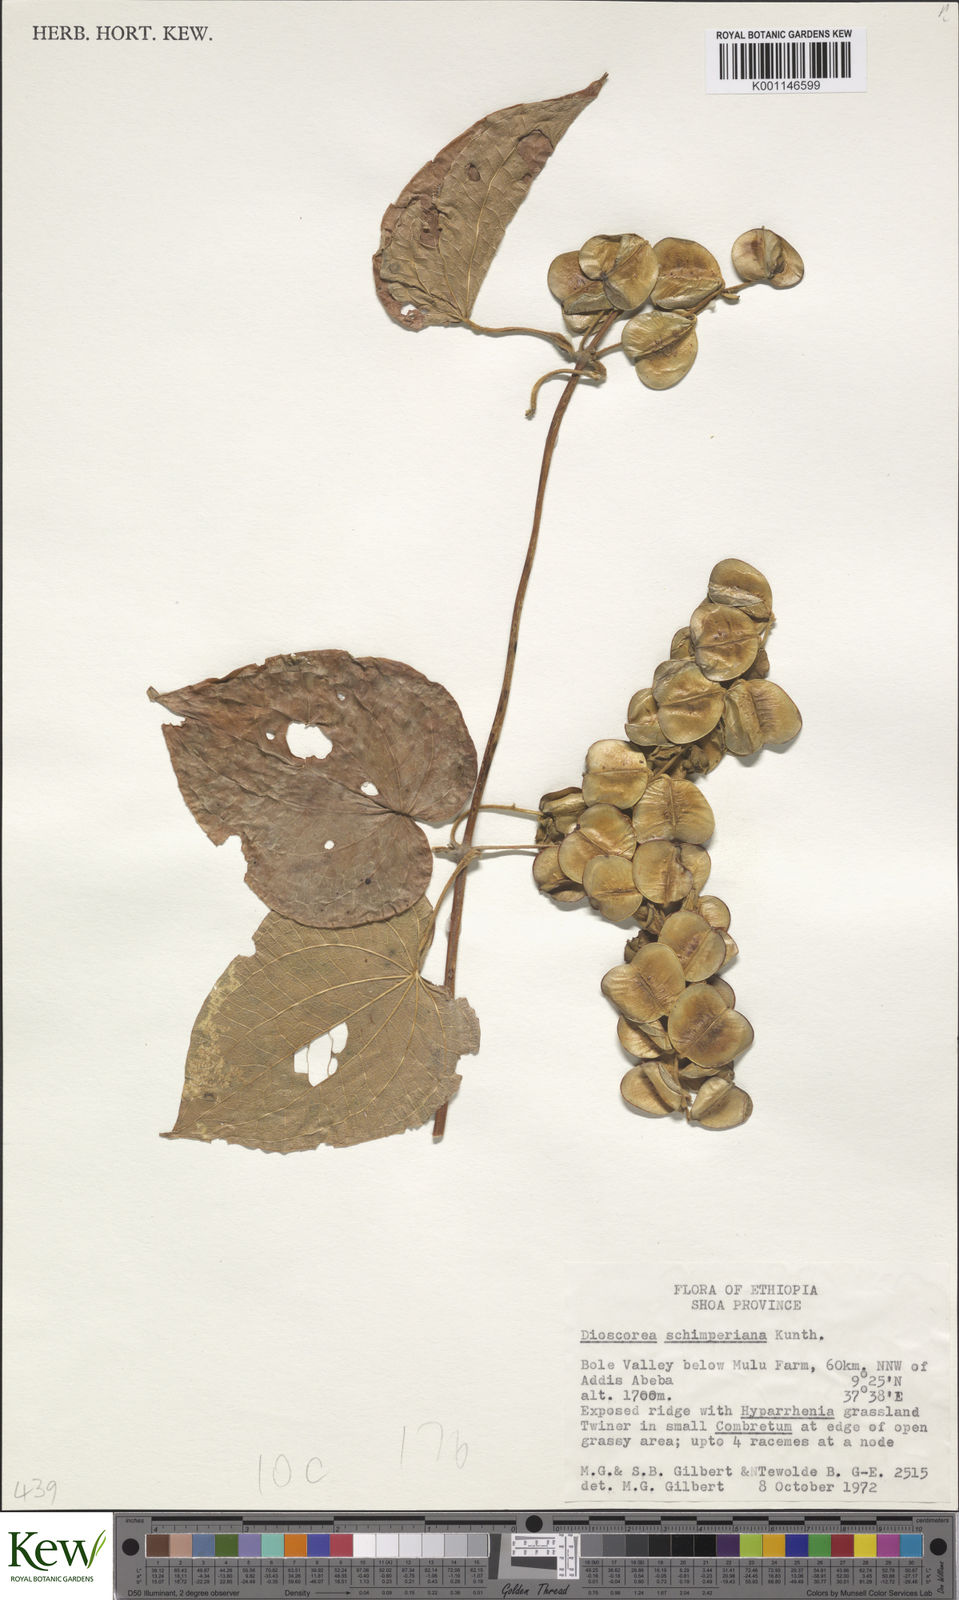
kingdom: Plantae
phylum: Tracheophyta
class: Liliopsida
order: Dioscoreales
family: Dioscoreaceae
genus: Dioscorea
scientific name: Dioscorea schimperiana
